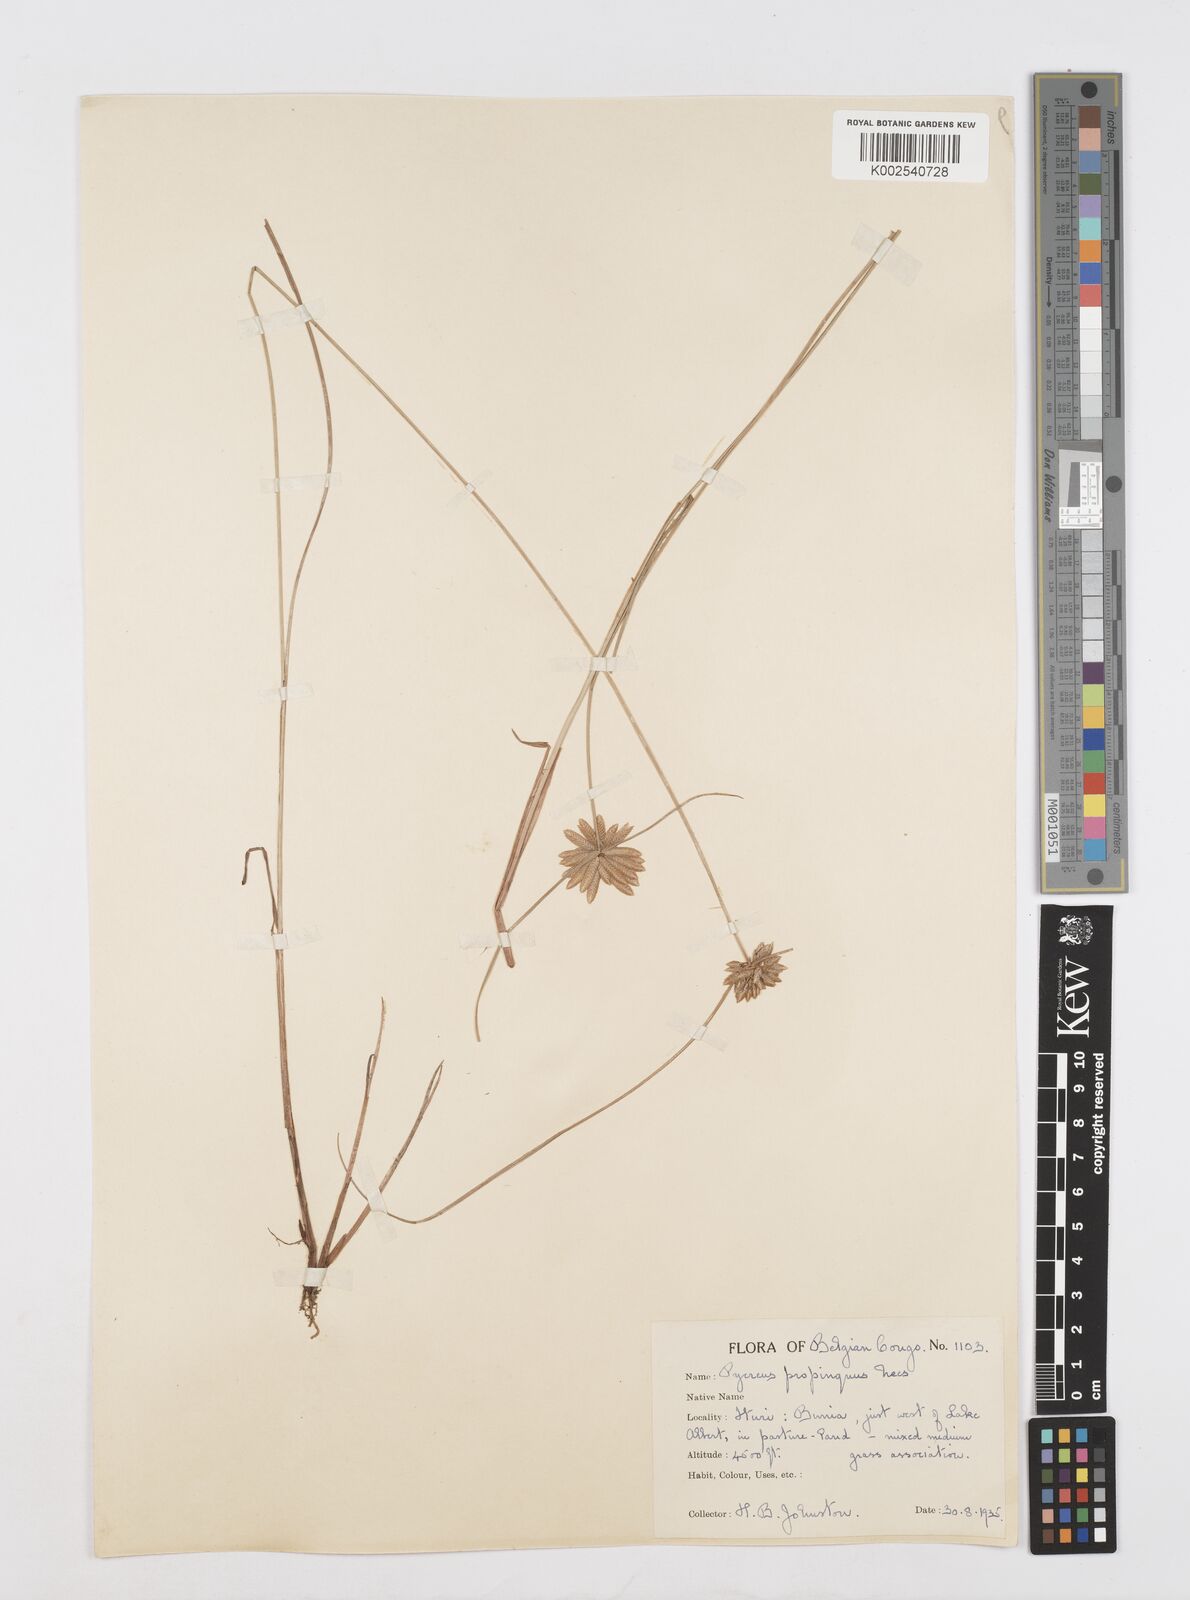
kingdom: Plantae
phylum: Tracheophyta
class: Liliopsida
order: Poales
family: Cyperaceae
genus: Cyperus
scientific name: Cyperus
